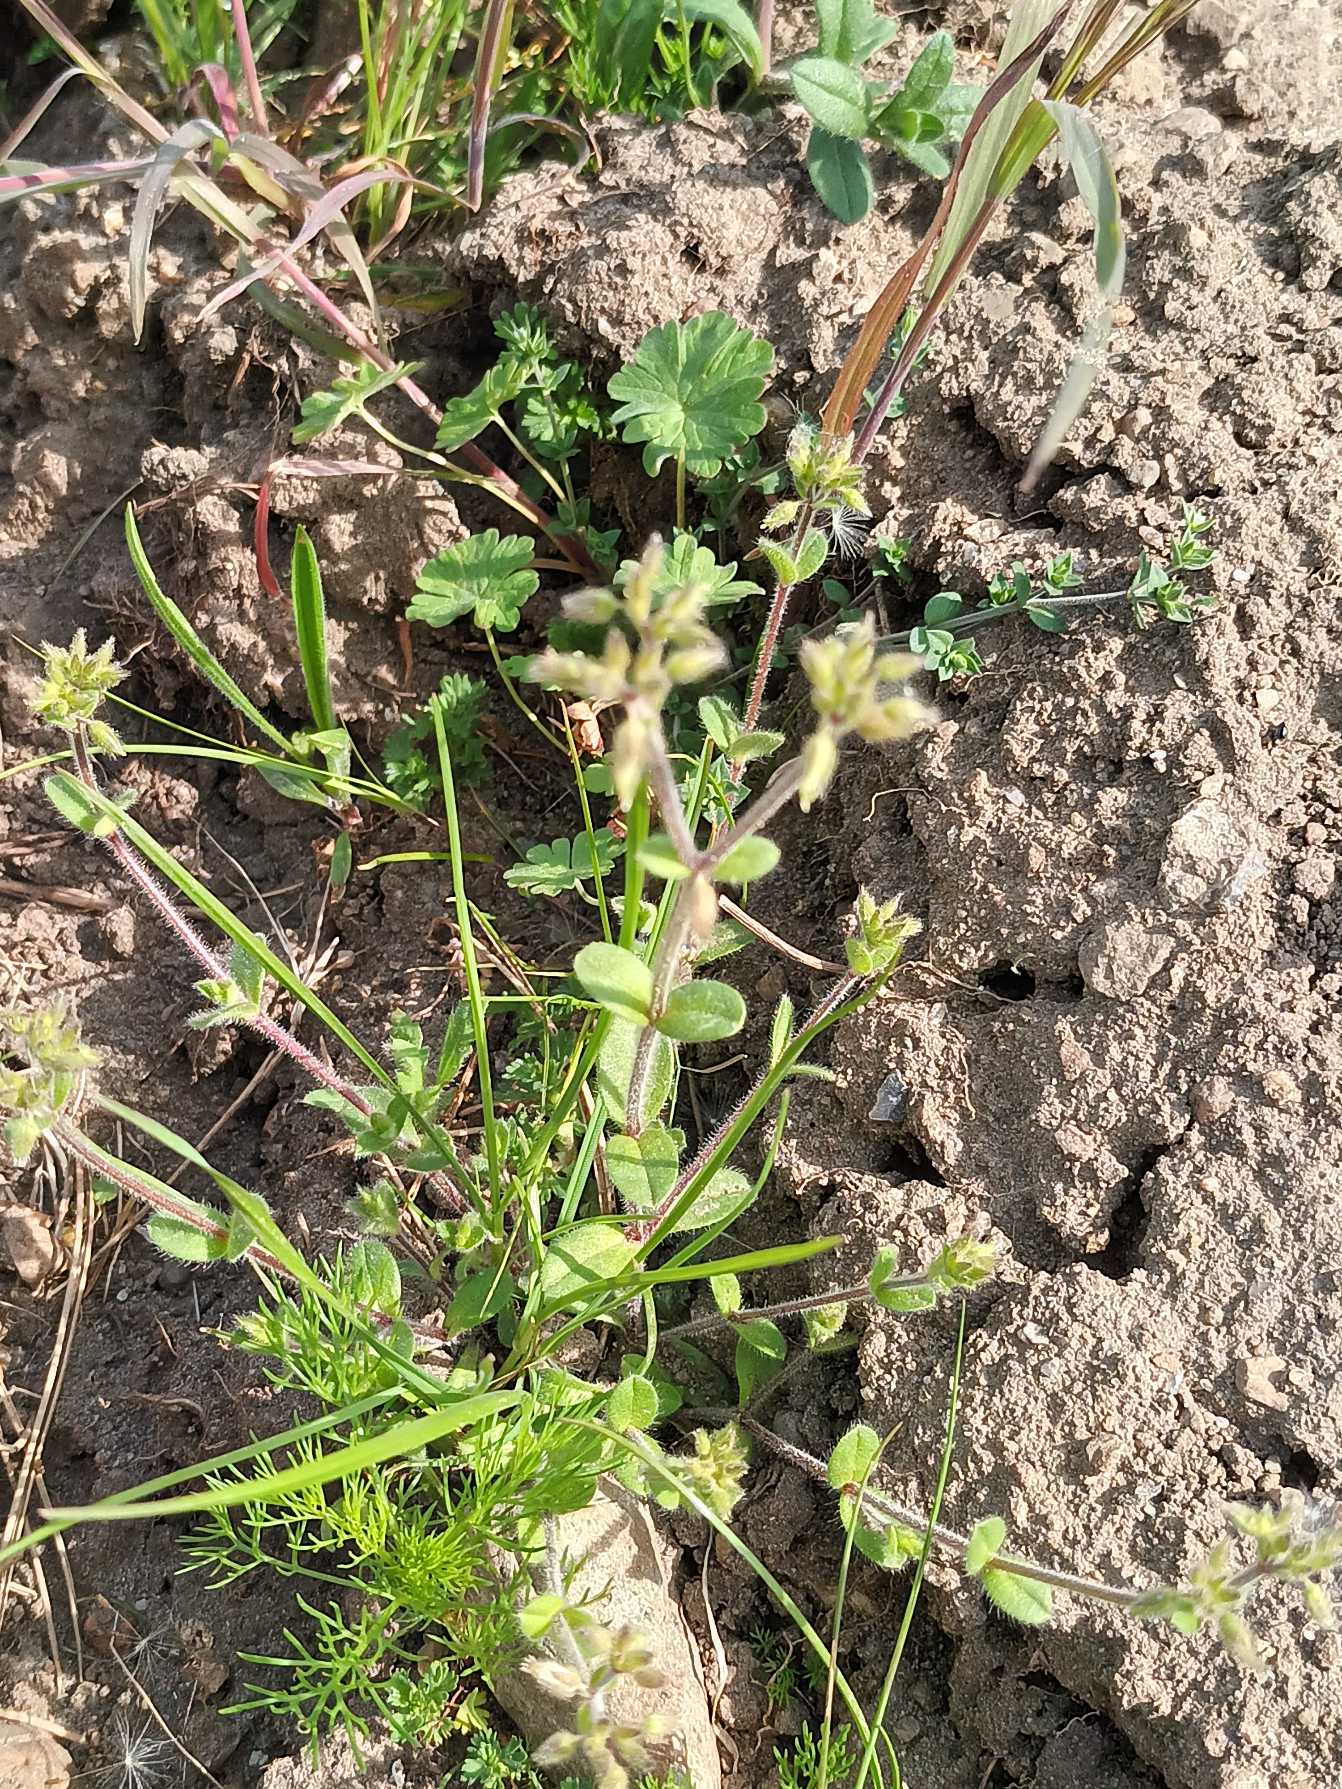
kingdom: Plantae
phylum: Tracheophyta
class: Magnoliopsida
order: Caryophyllales
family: Caryophyllaceae
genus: Cerastium
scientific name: Cerastium glomeratum
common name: Opret hønsetarm
